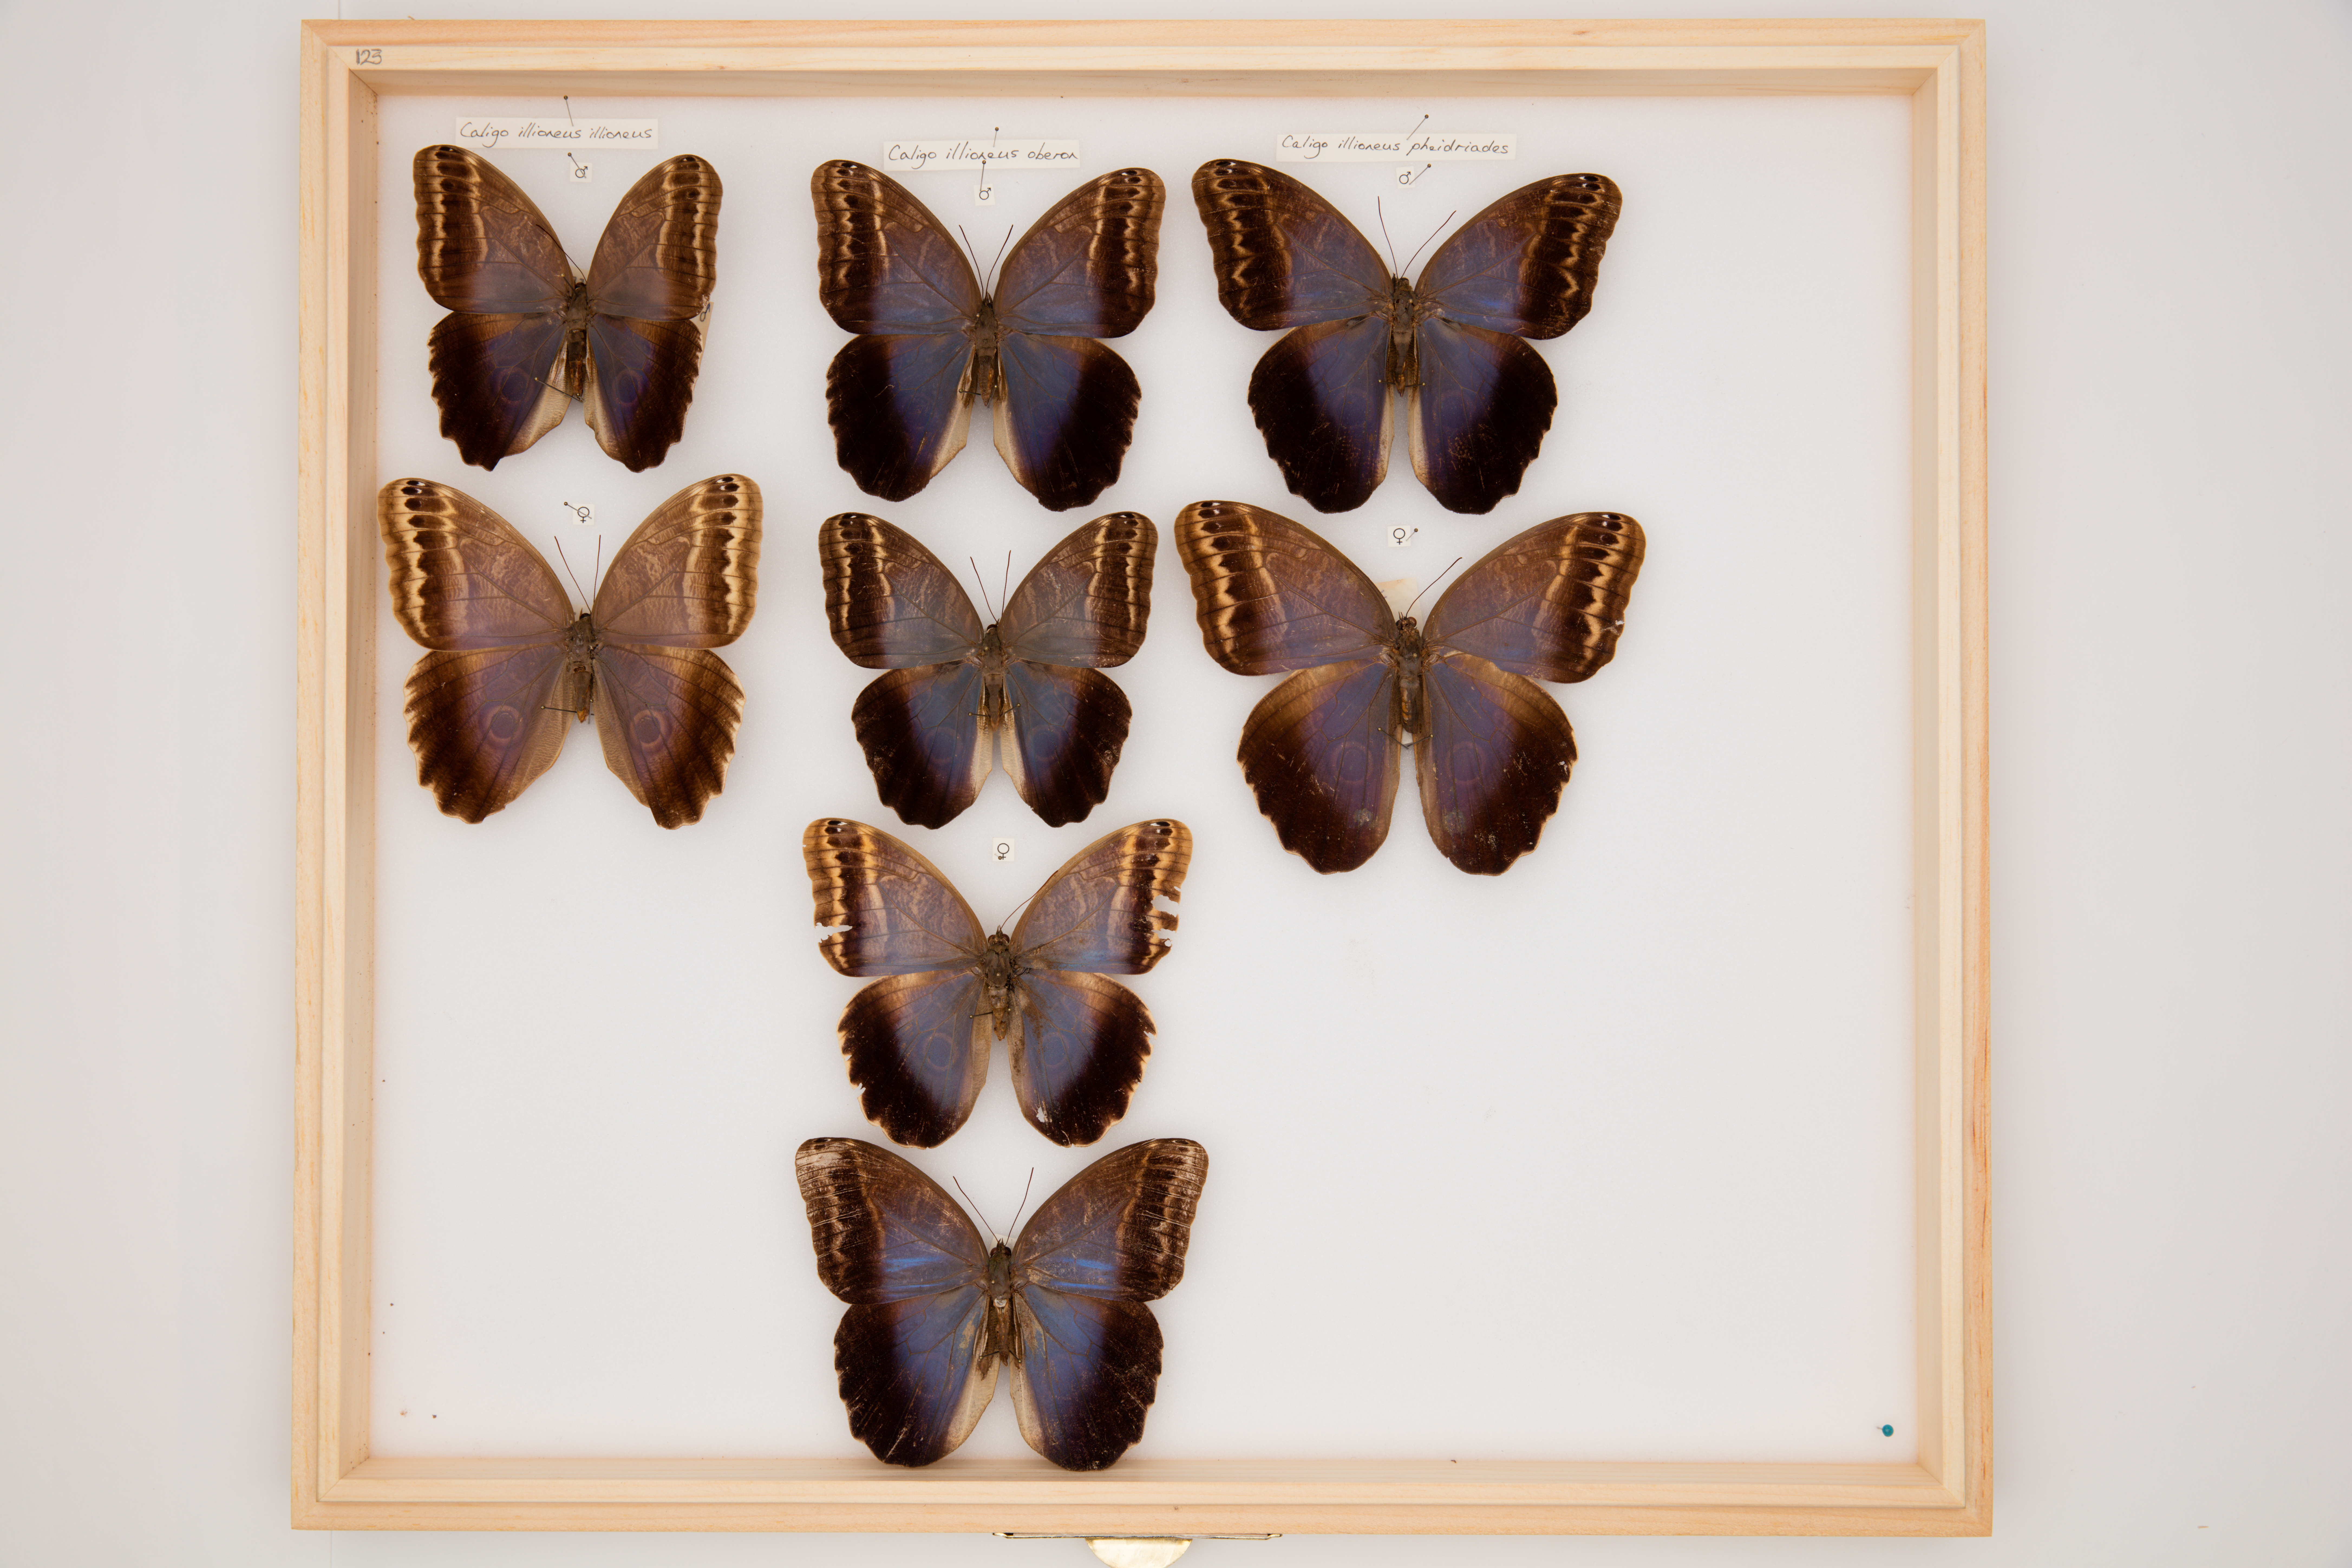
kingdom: Animalia
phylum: Arthropoda
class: Insecta
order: Lepidoptera
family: Nymphalidae
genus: Morpho
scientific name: Morpho aega
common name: Aega morpho
